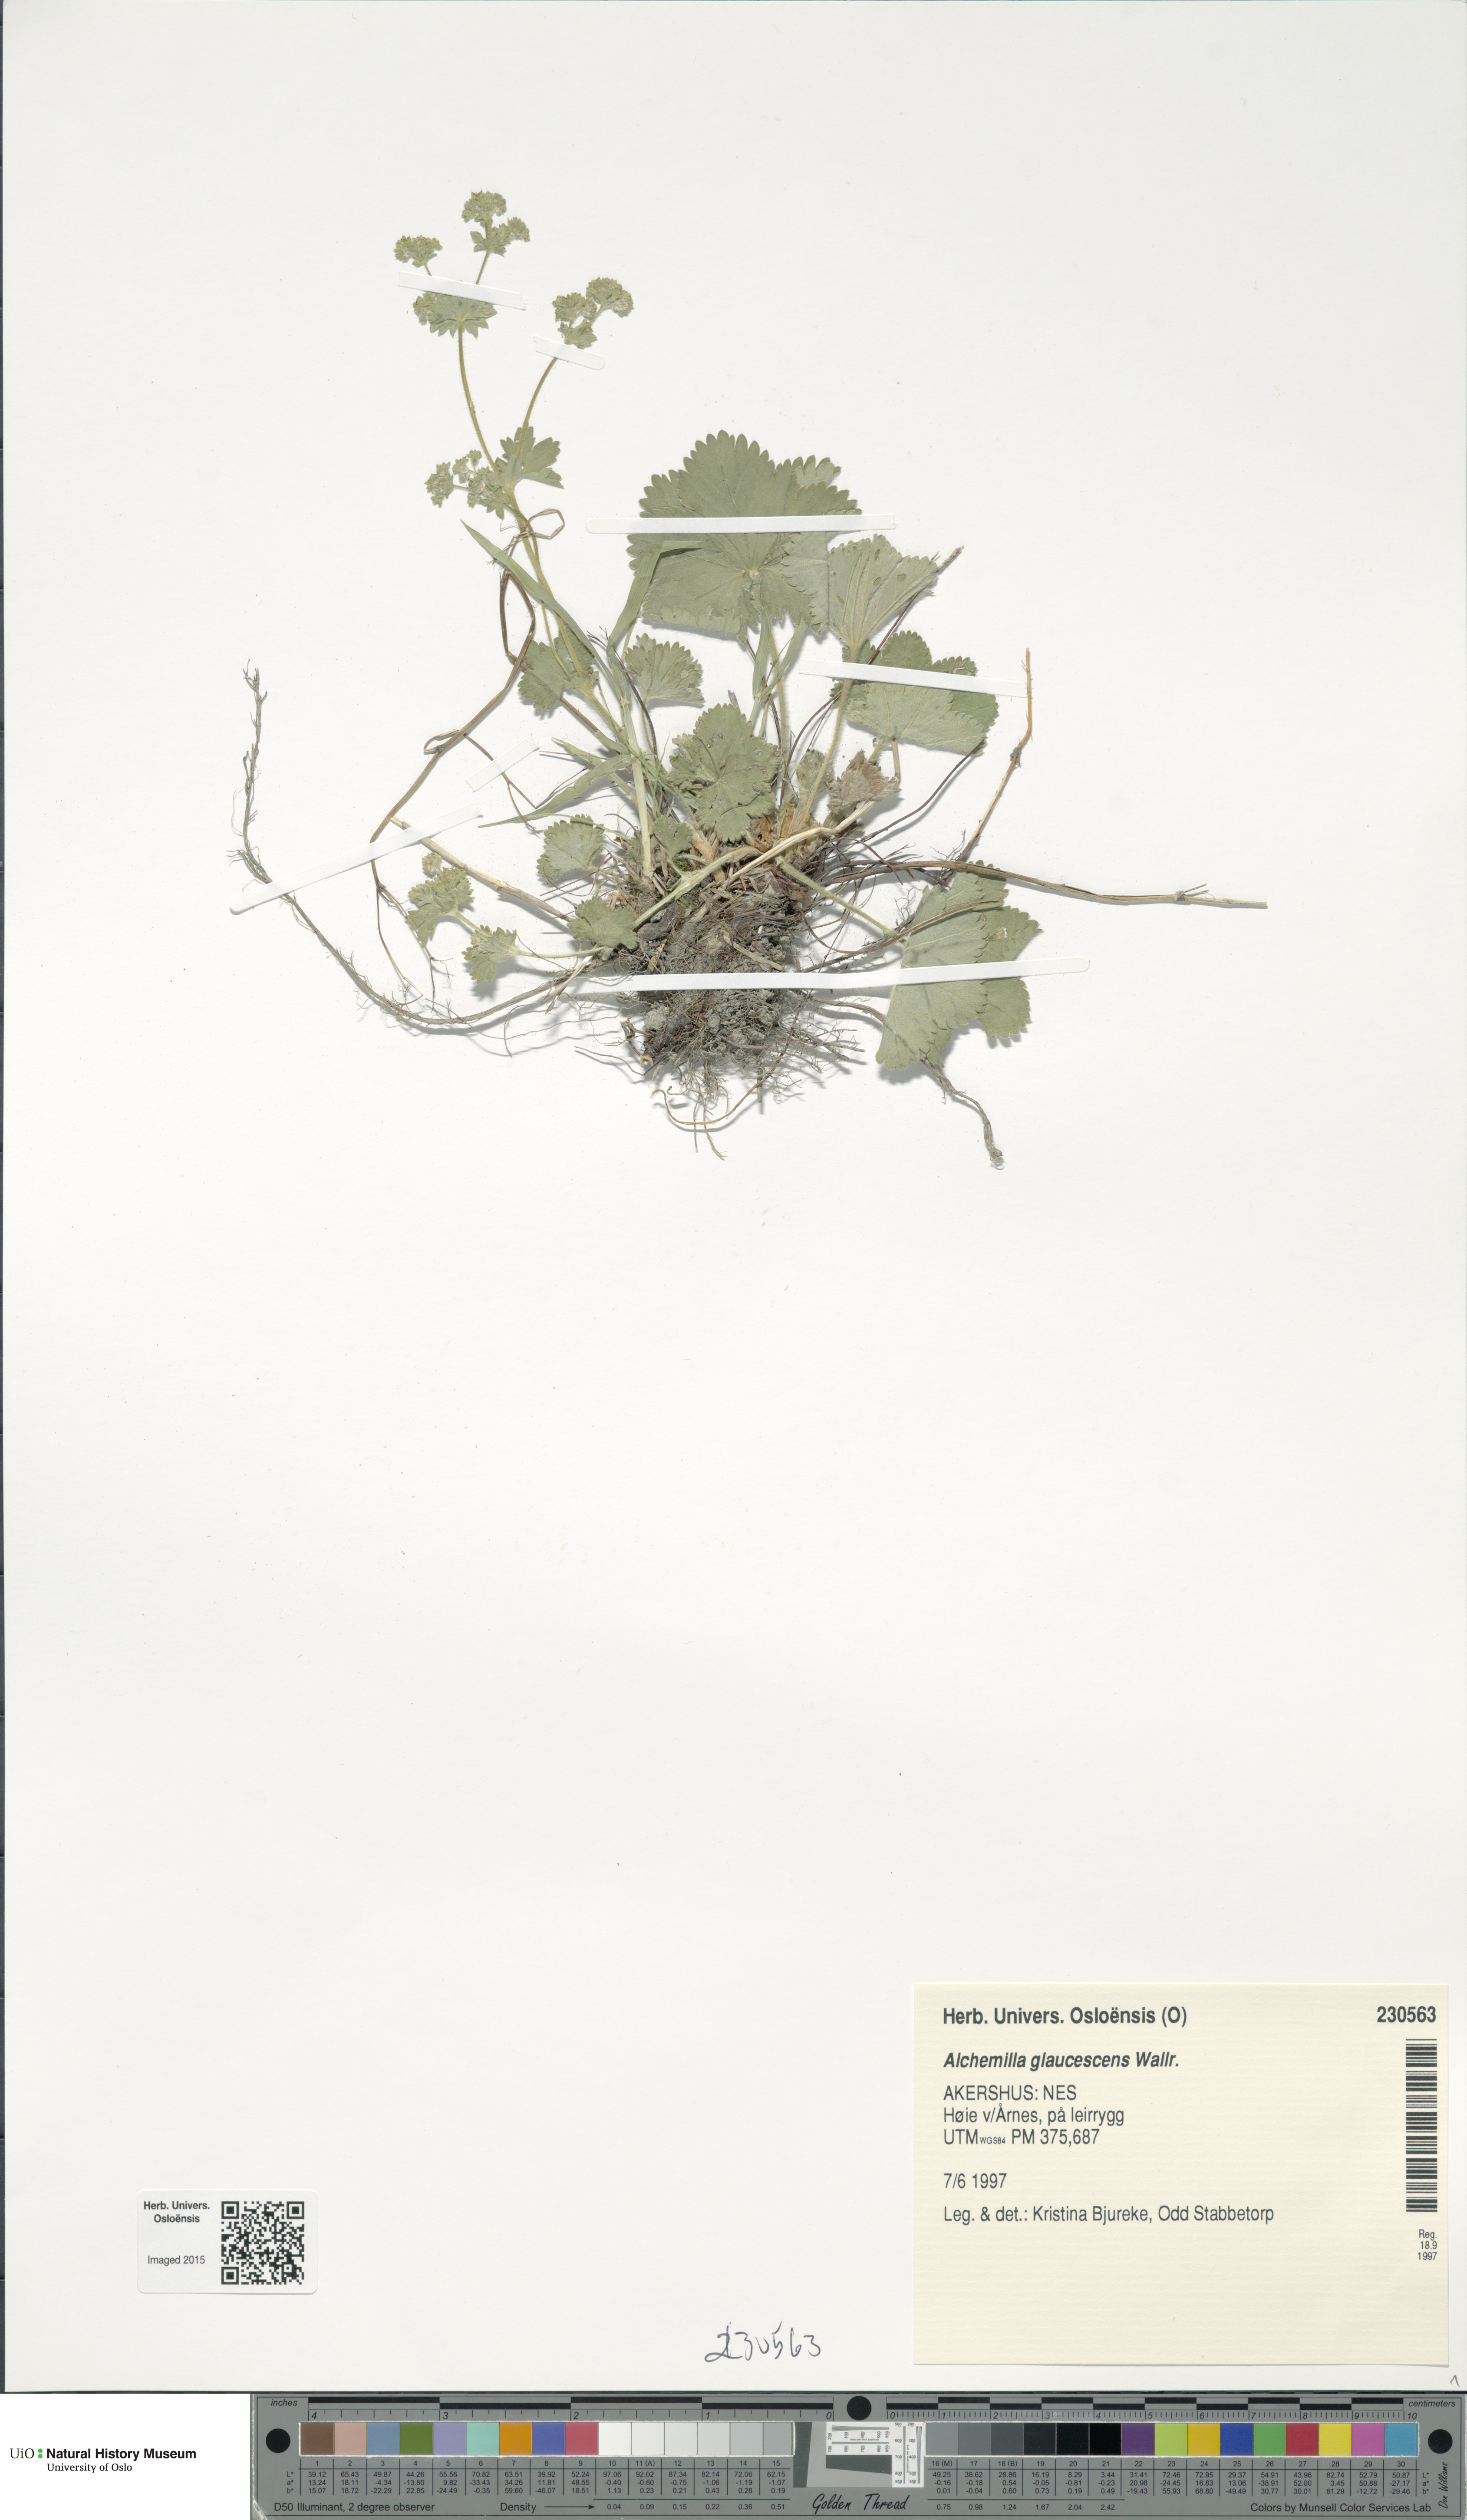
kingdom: Plantae
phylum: Tracheophyta
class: Magnoliopsida
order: Rosales
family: Rosaceae
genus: Alchemilla
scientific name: Alchemilla glaucescens
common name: Silky lady's mantle
